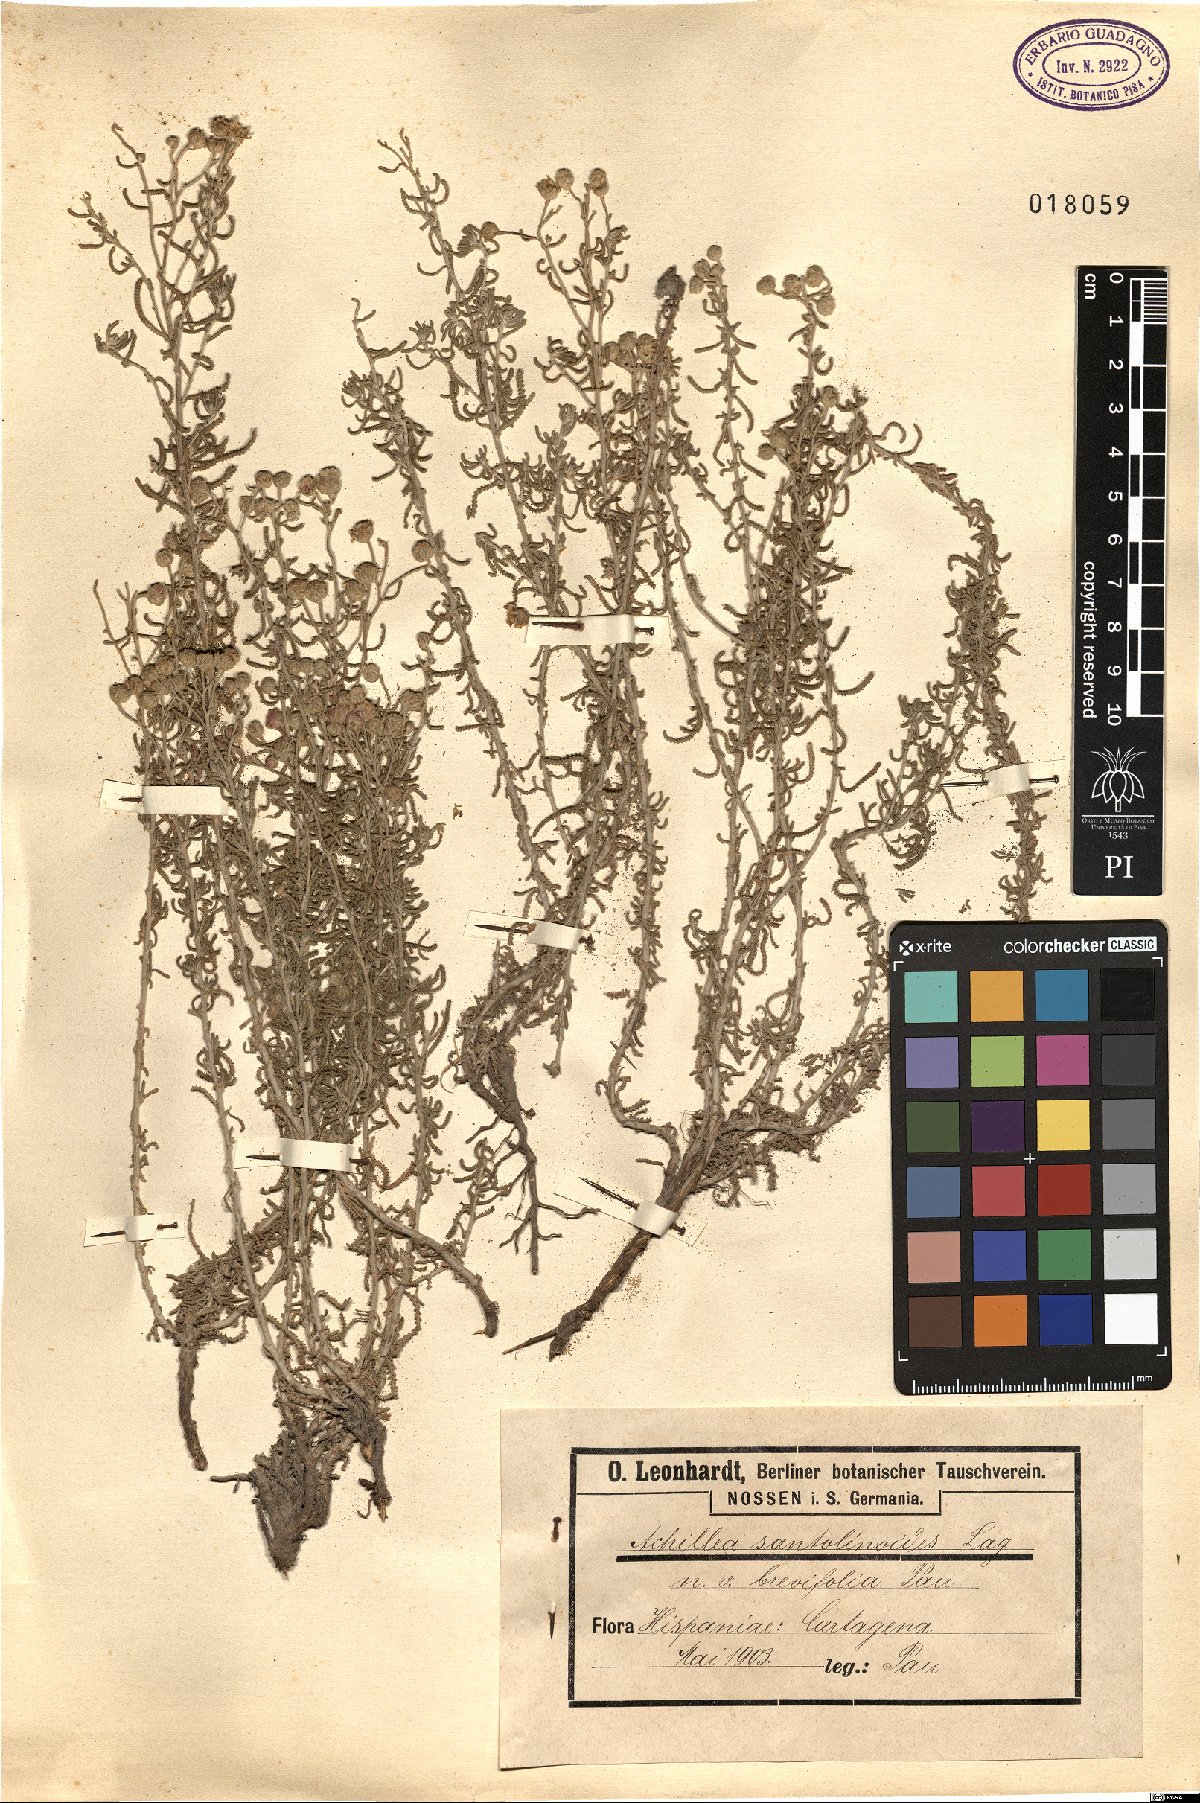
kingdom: Plantae
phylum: Tracheophyta
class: Magnoliopsida
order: Asterales
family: Asteraceae
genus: Achillea
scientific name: Achillea santolinoides
